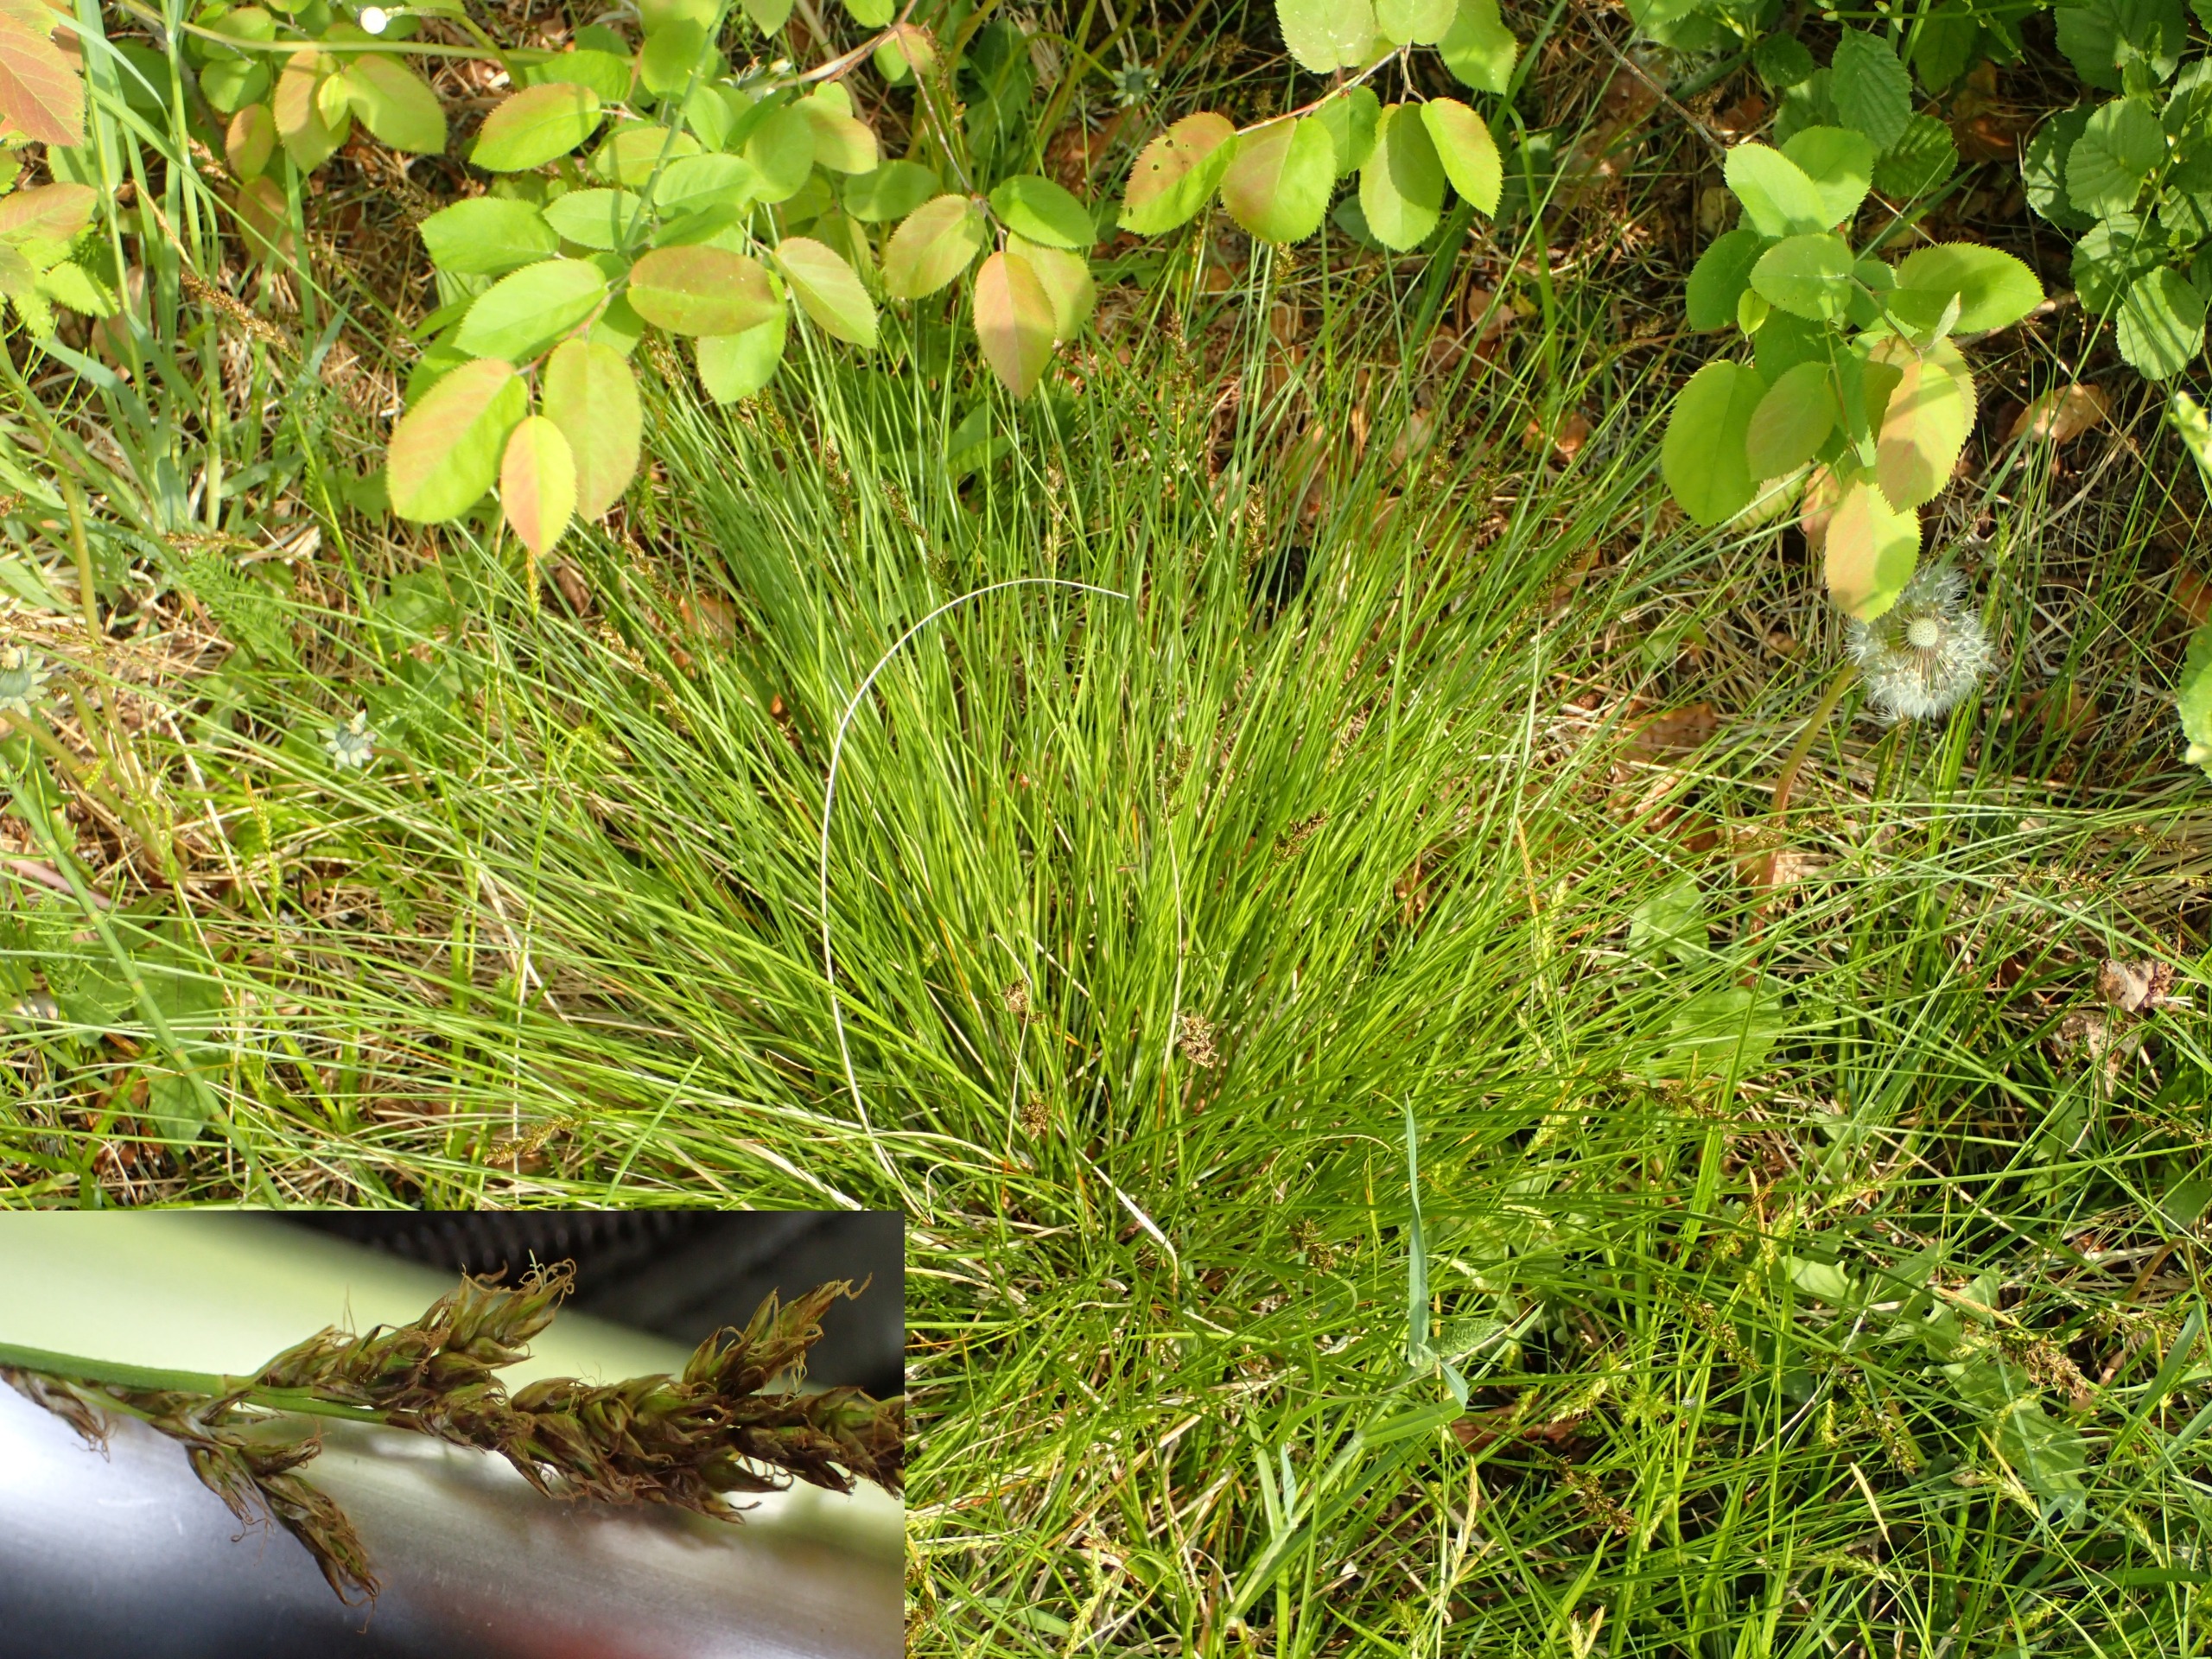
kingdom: Plantae
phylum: Tracheophyta
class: Liliopsida
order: Poales
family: Cyperaceae
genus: Carex
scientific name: Carex diandra
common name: Trindstænglet star
